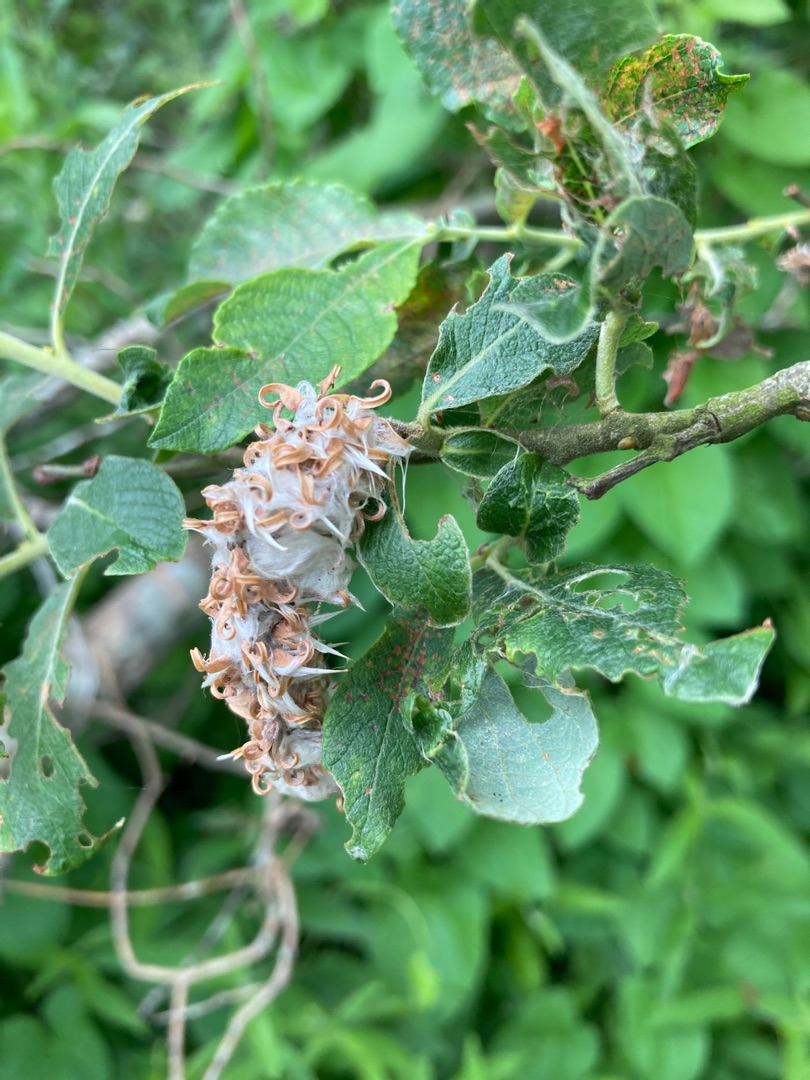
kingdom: Plantae
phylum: Tracheophyta
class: Magnoliopsida
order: Malpighiales
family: Salicaceae
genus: Salix
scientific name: Salix aurita
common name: Øret pil
